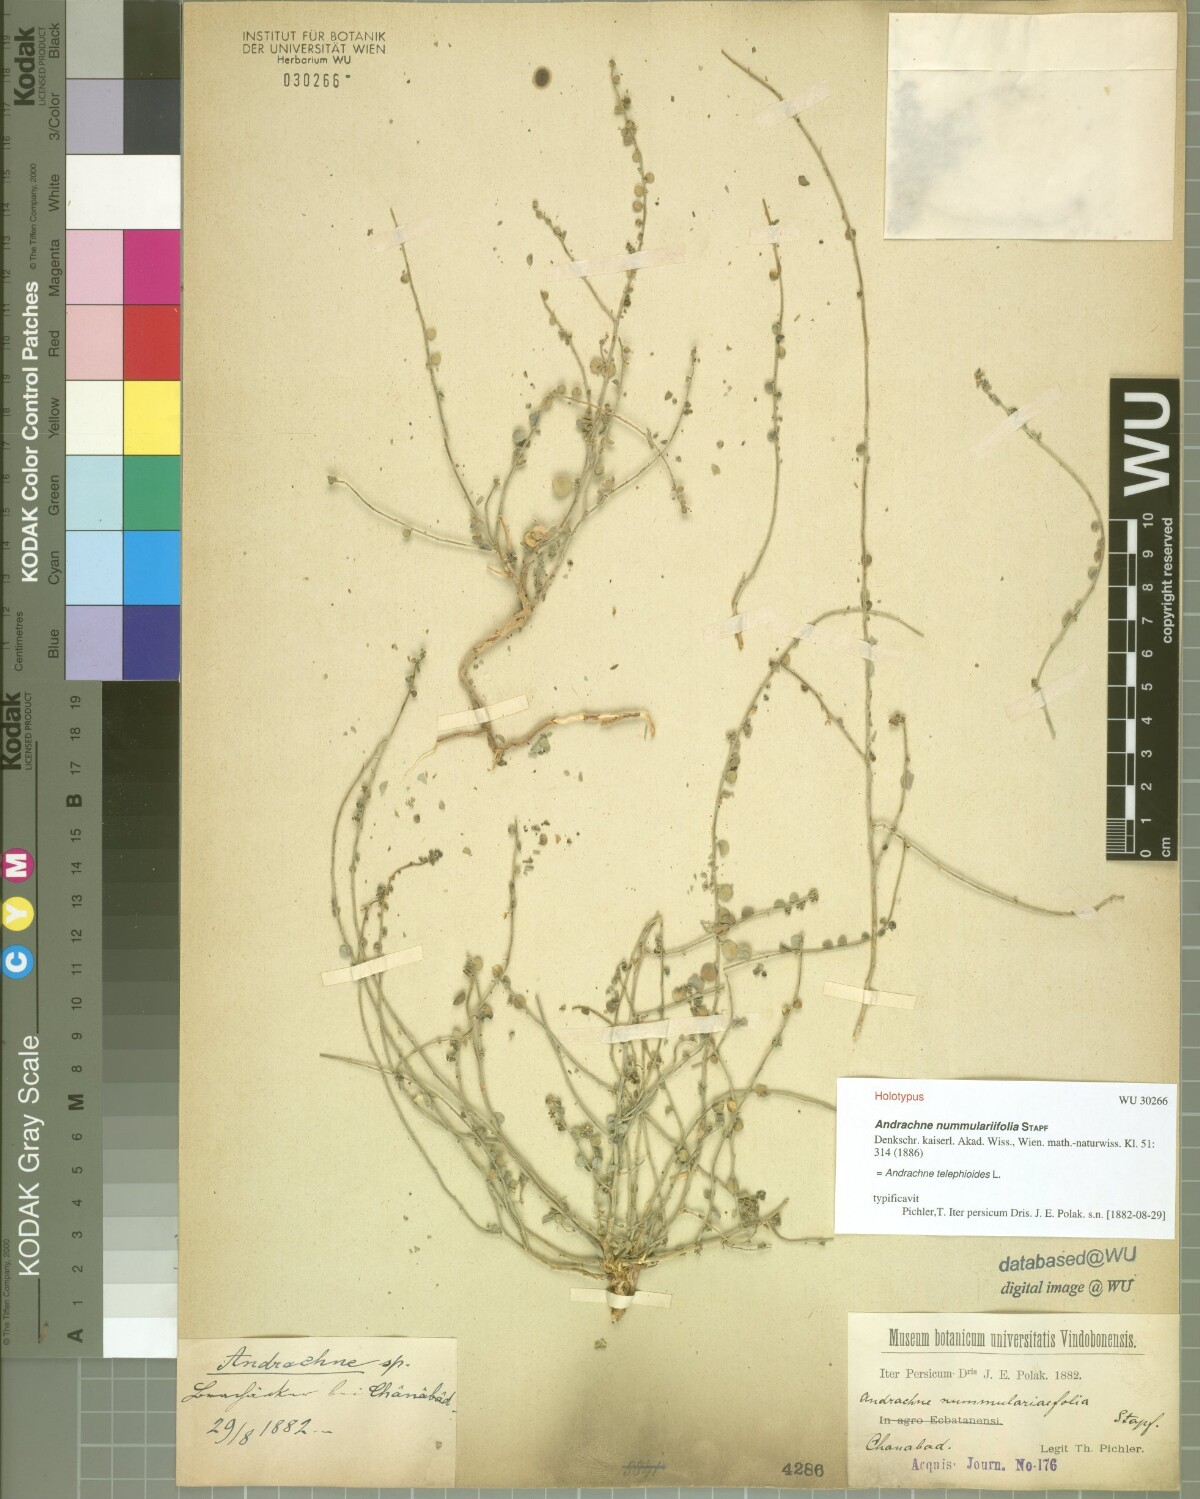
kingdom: Plantae
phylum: Tracheophyta
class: Magnoliopsida
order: Malpighiales
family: Phyllanthaceae
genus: Andrachne
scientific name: Andrachne telephioides
